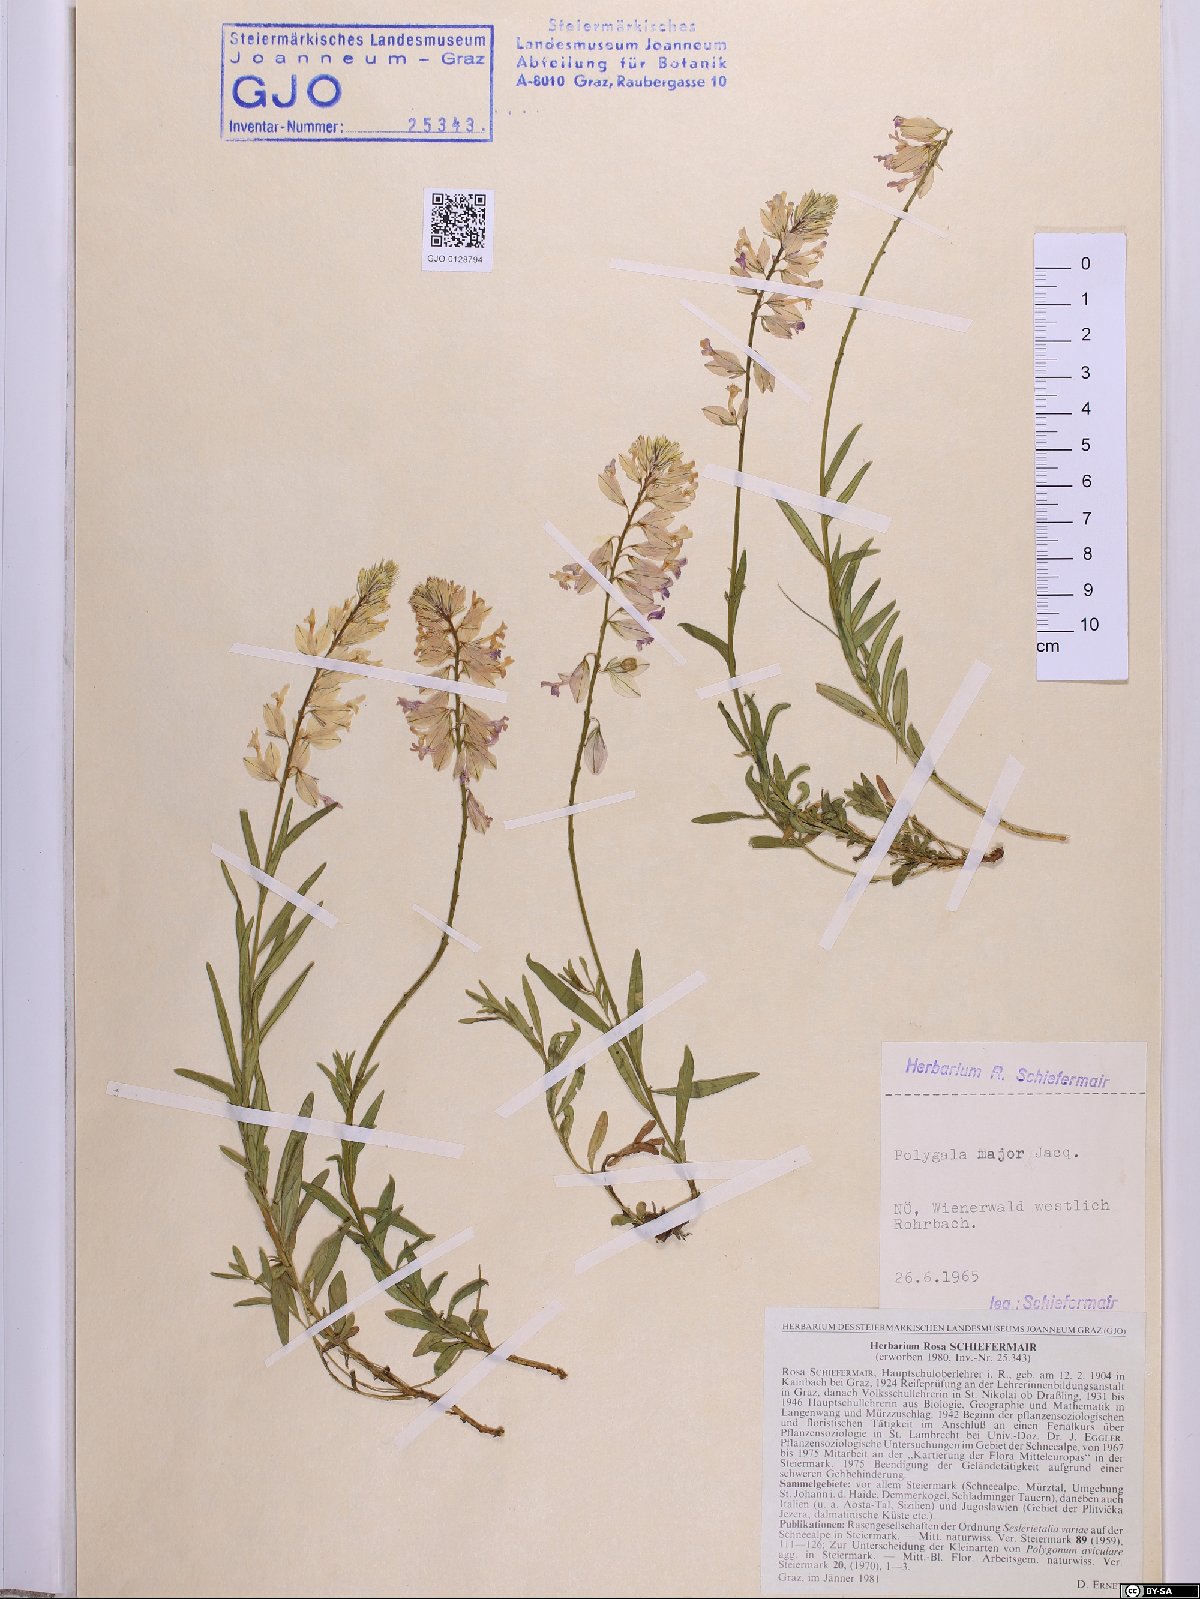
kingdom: Plantae
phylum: Tracheophyta
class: Magnoliopsida
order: Fabales
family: Polygalaceae
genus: Polygala
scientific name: Polygala major
